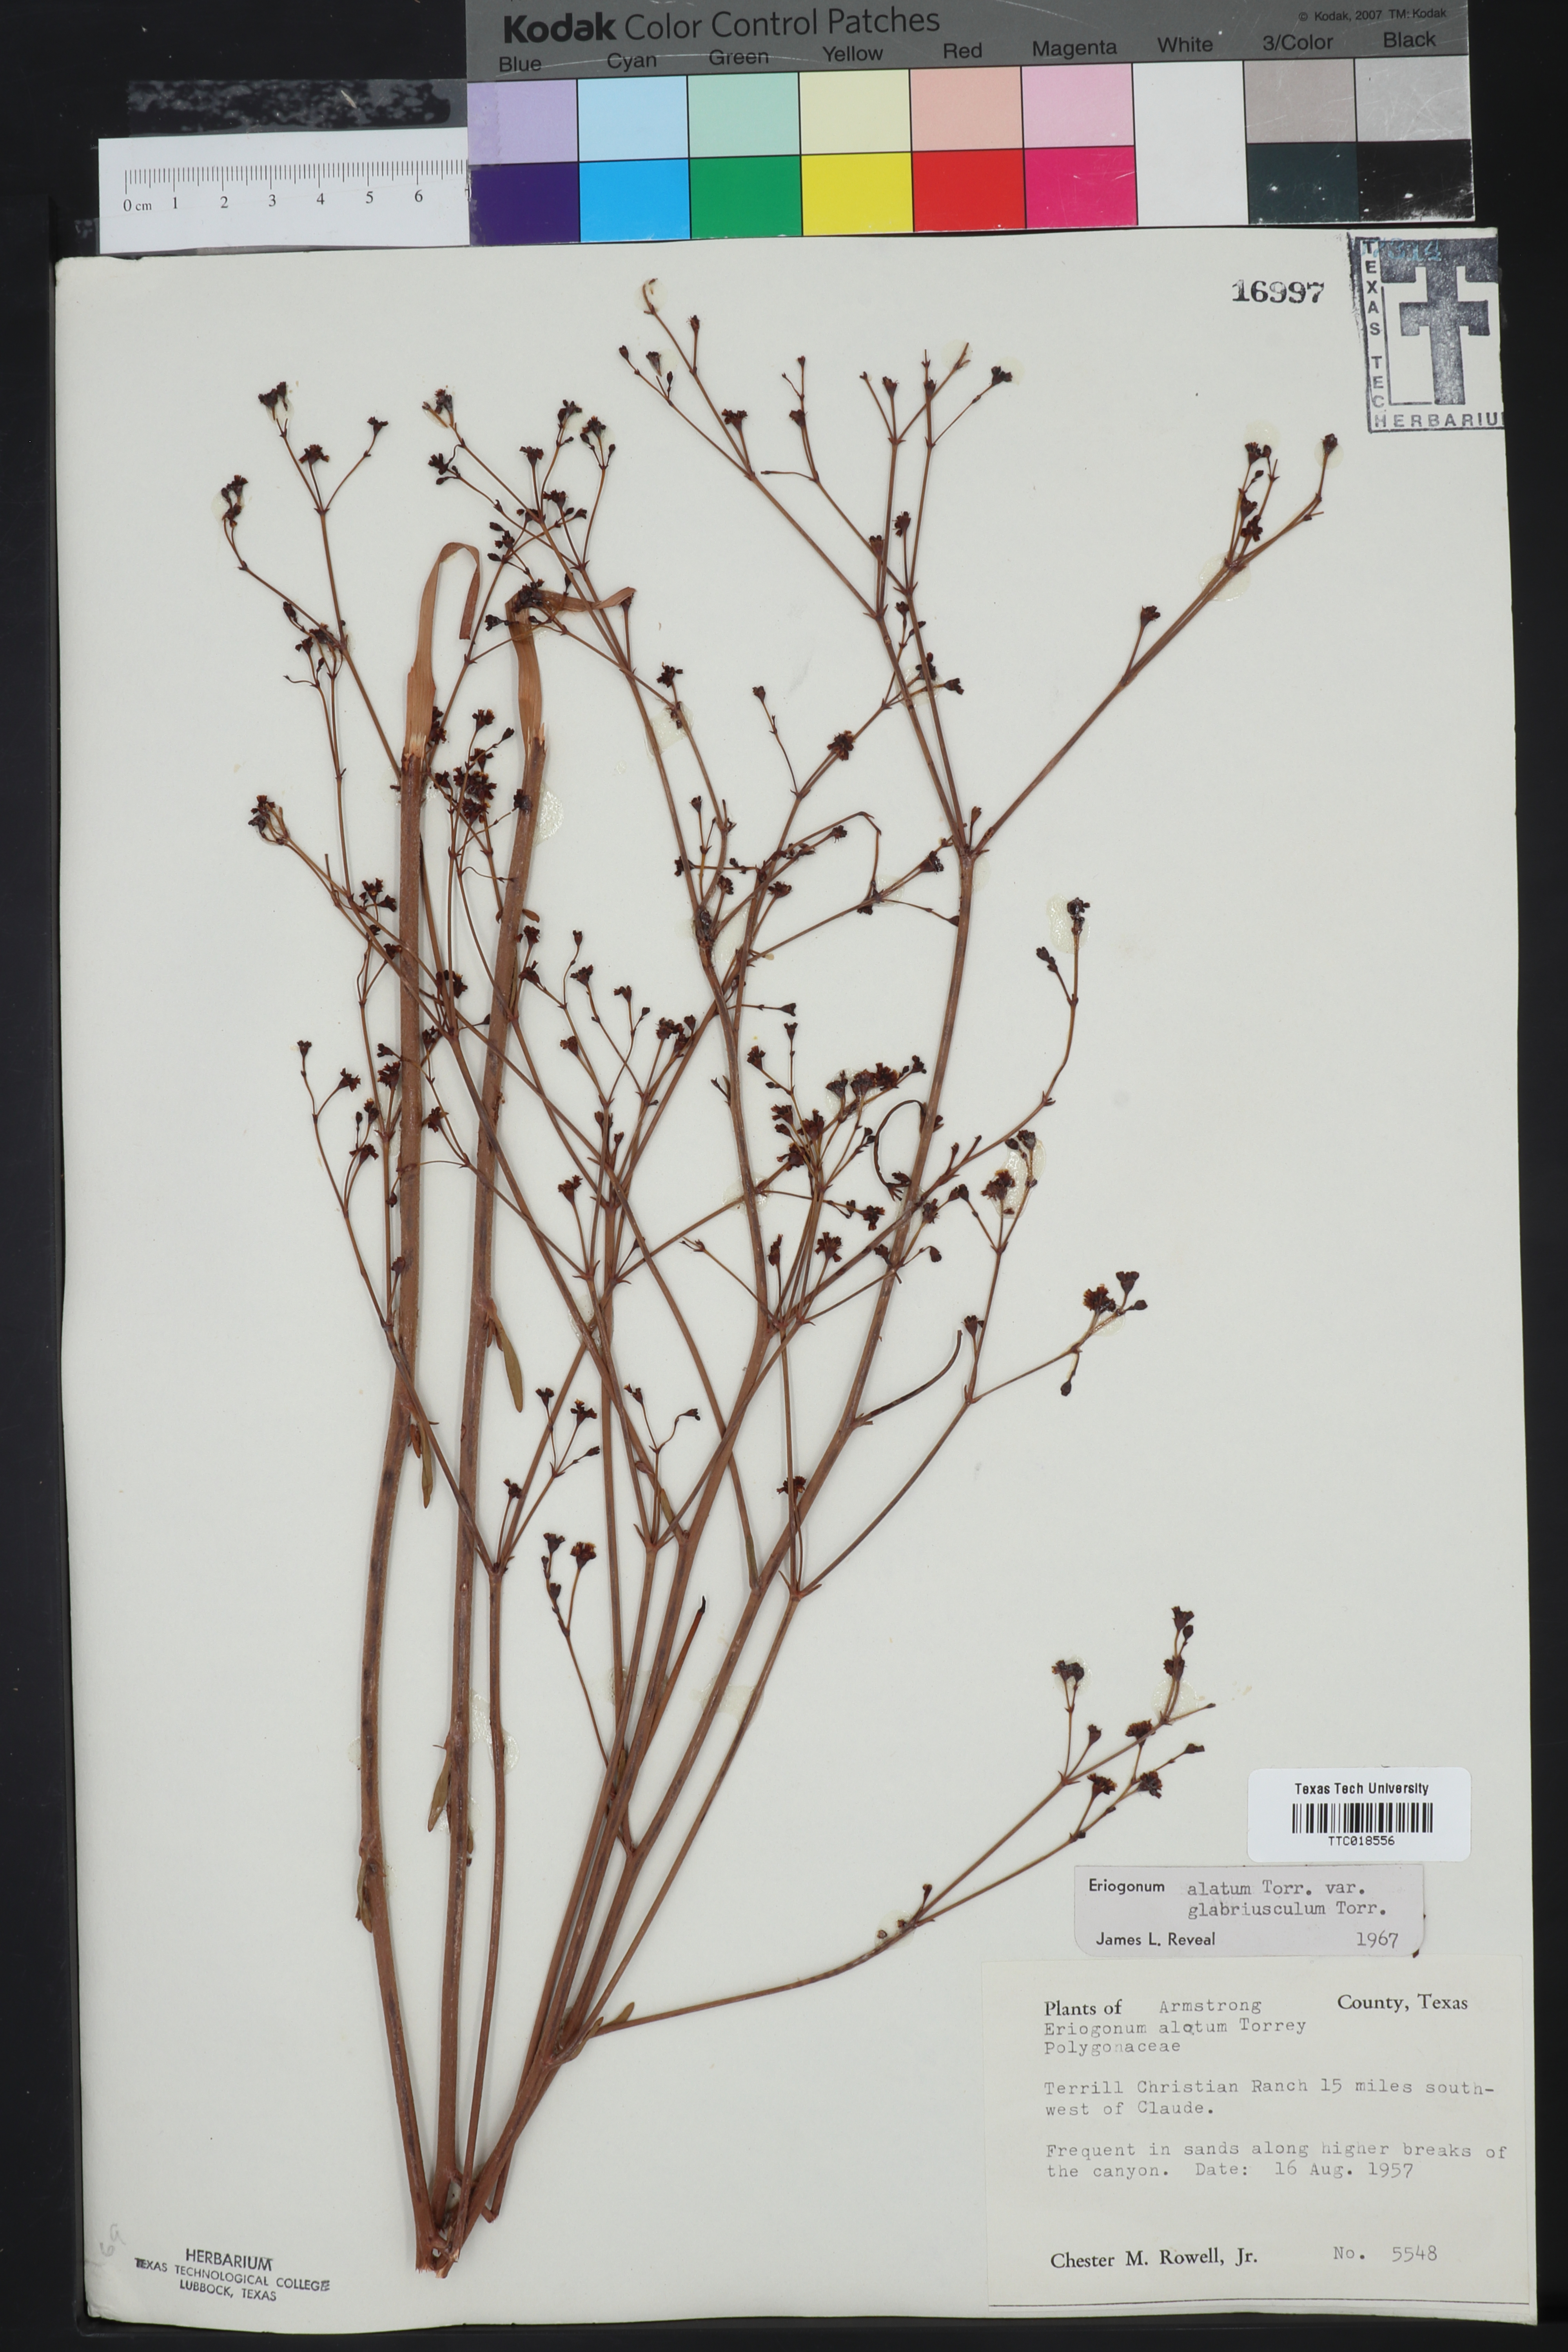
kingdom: Plantae
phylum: Tracheophyta
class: Magnoliopsida
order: Caryophyllales
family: Polygonaceae
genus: Eriogonum
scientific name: Eriogonum alatum
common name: Winged eriogonum
